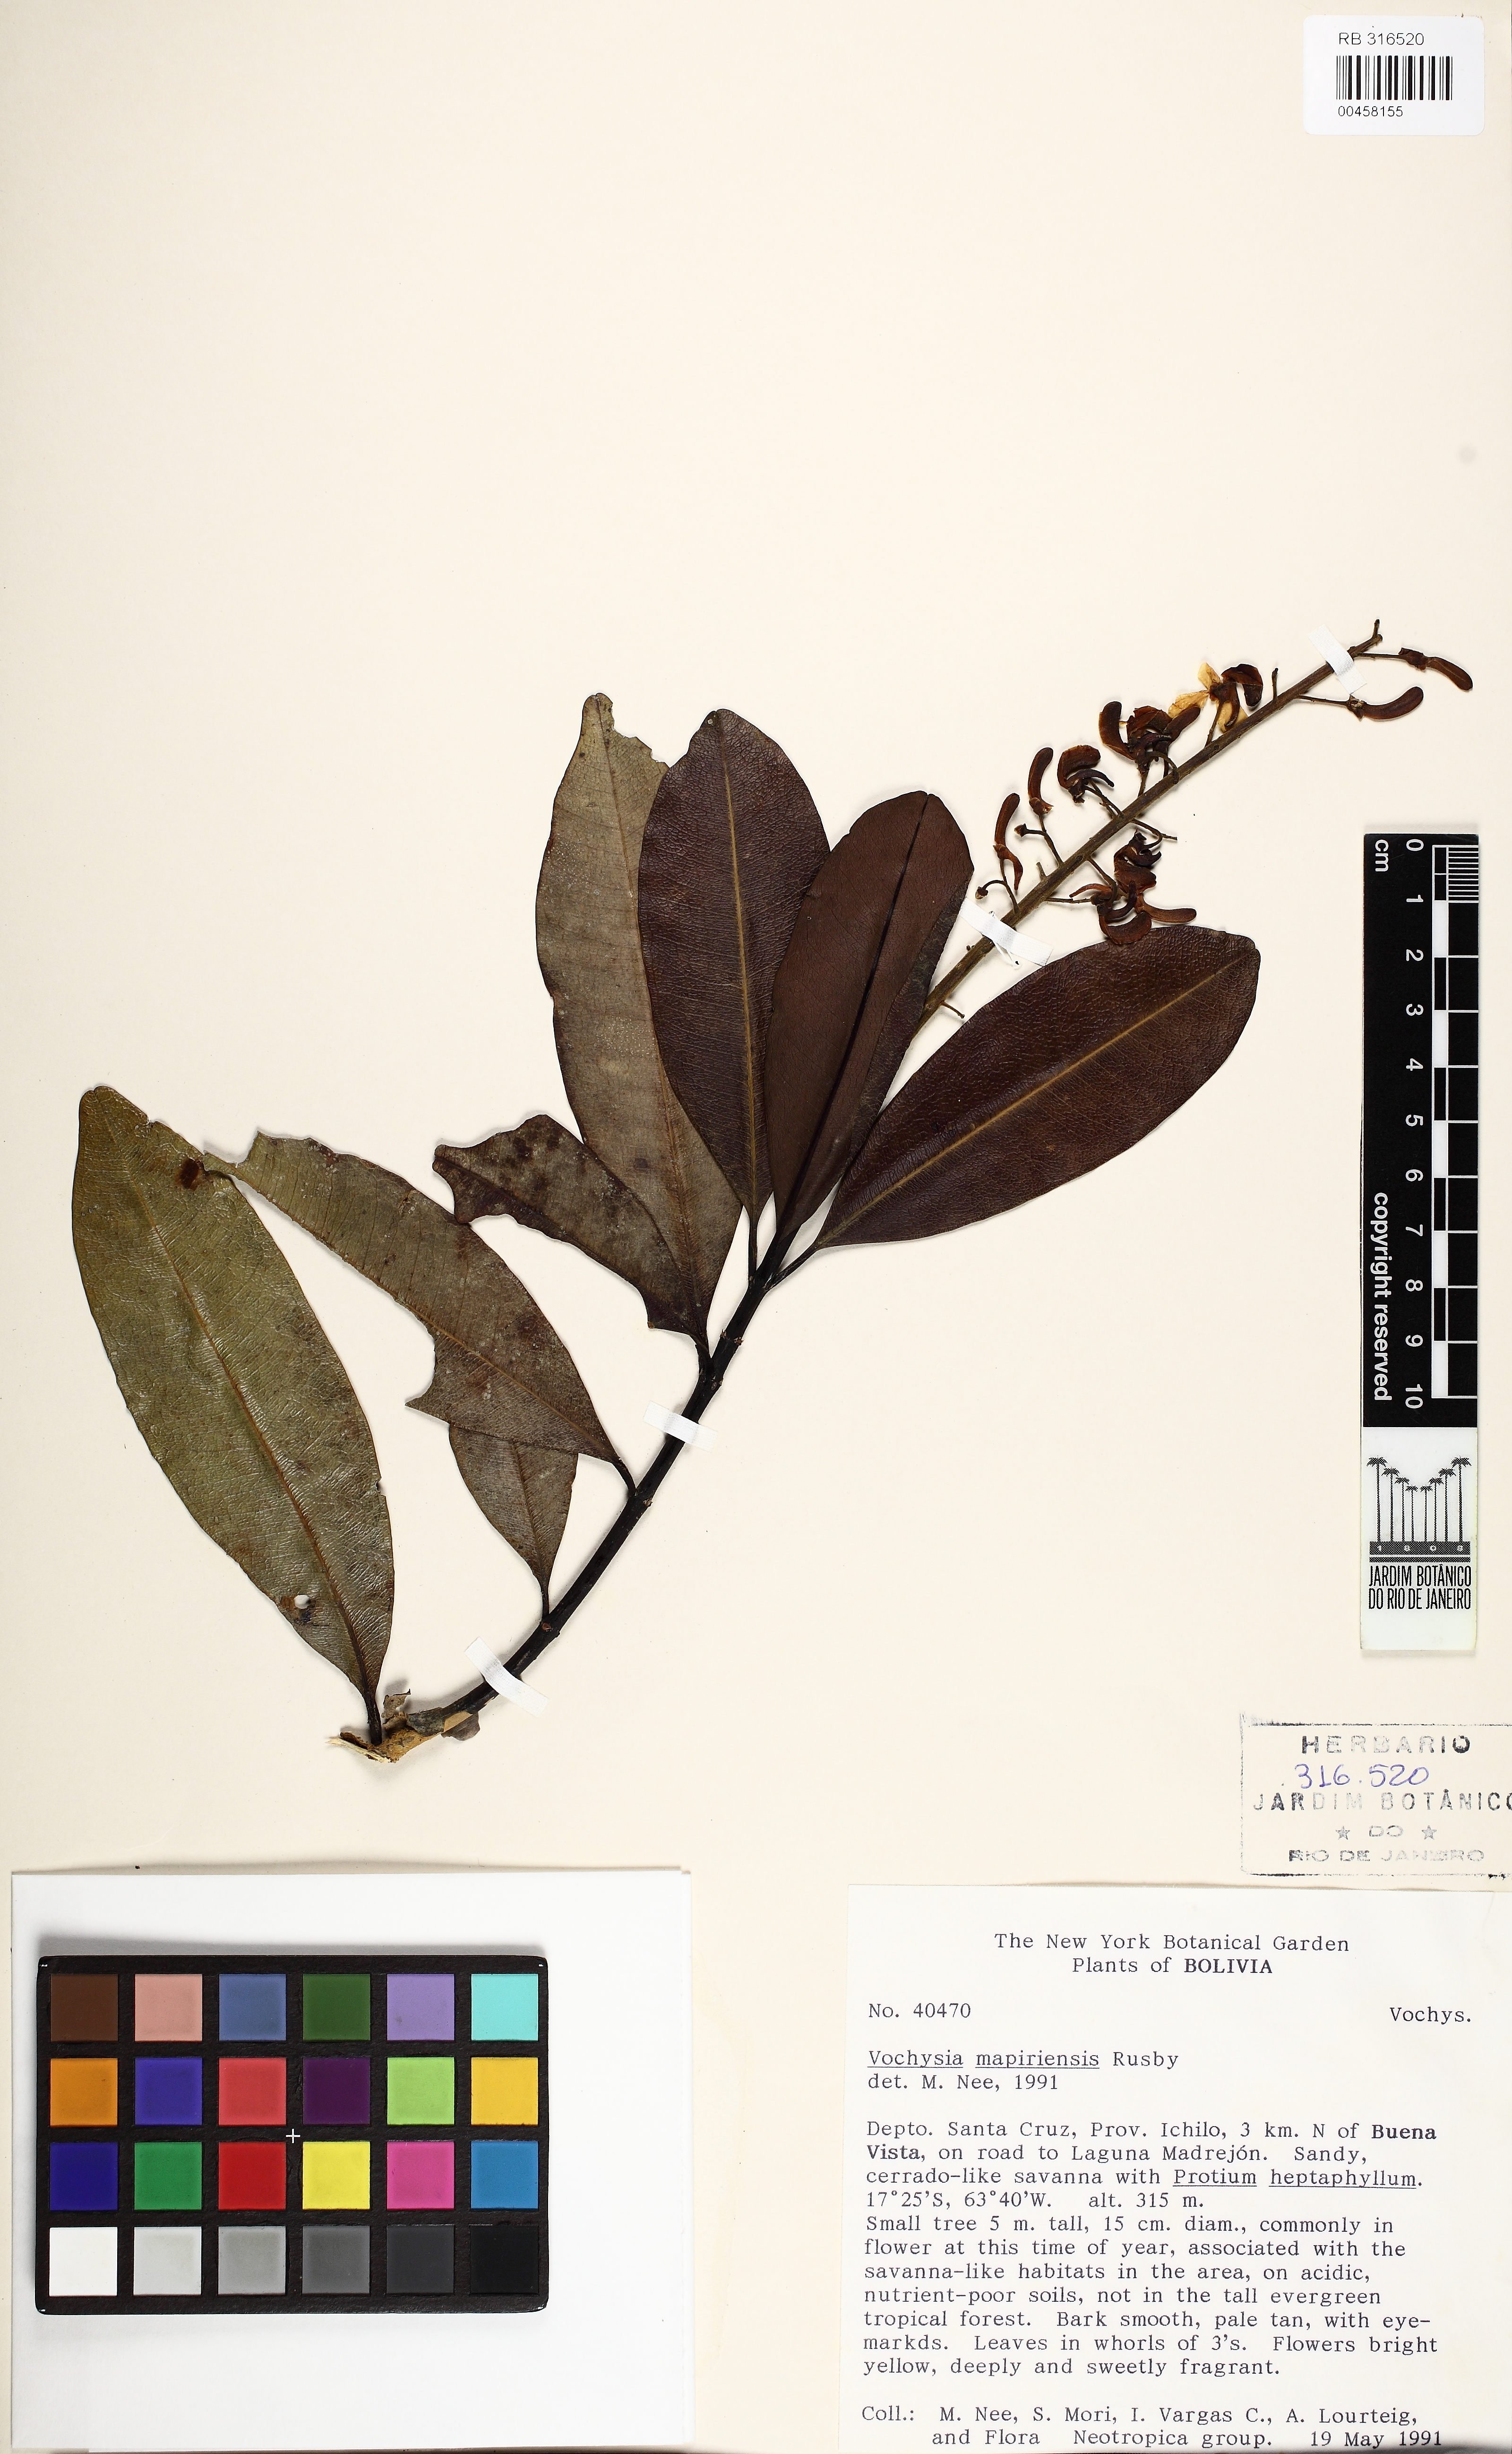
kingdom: Plantae
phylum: Tracheophyta
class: Magnoliopsida
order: Myrtales
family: Vochysiaceae
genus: Vochysia
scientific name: Vochysia mapirensis
